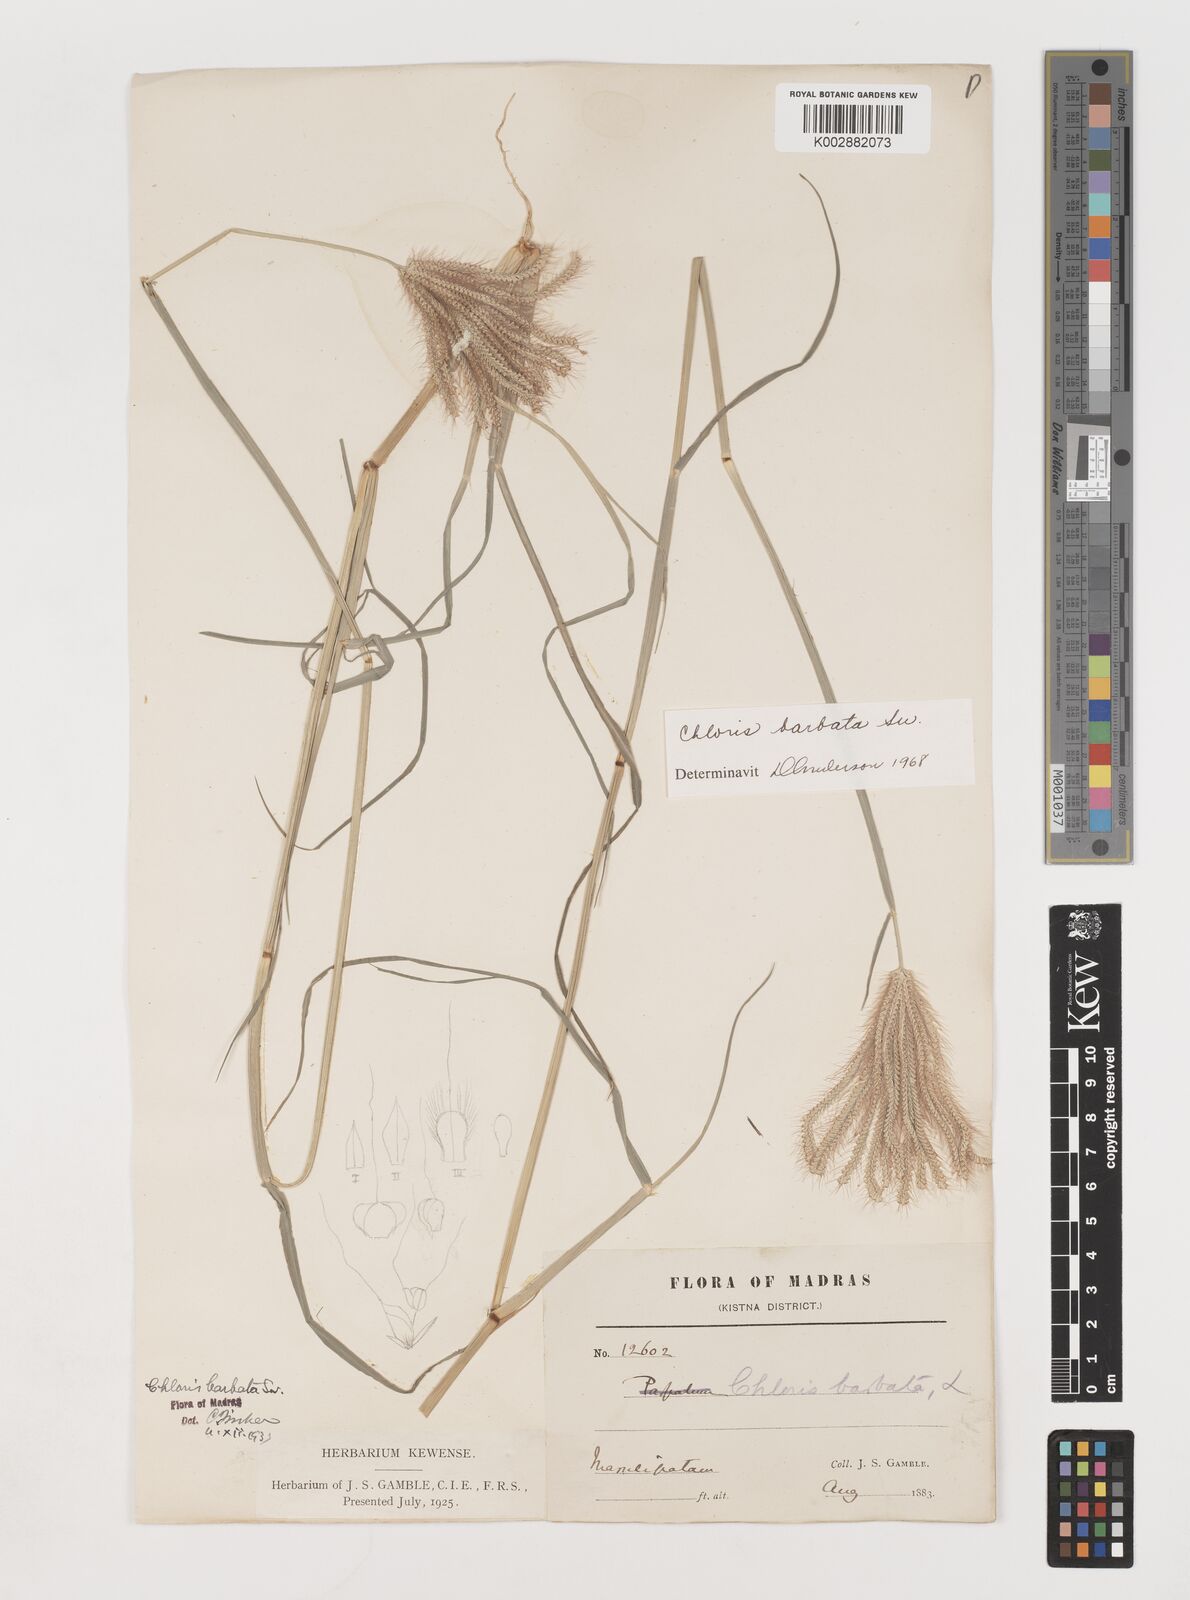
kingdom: Plantae
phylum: Tracheophyta
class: Liliopsida
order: Poales
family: Poaceae
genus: Chloris
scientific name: Chloris barbata
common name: Swollen fingergrass
